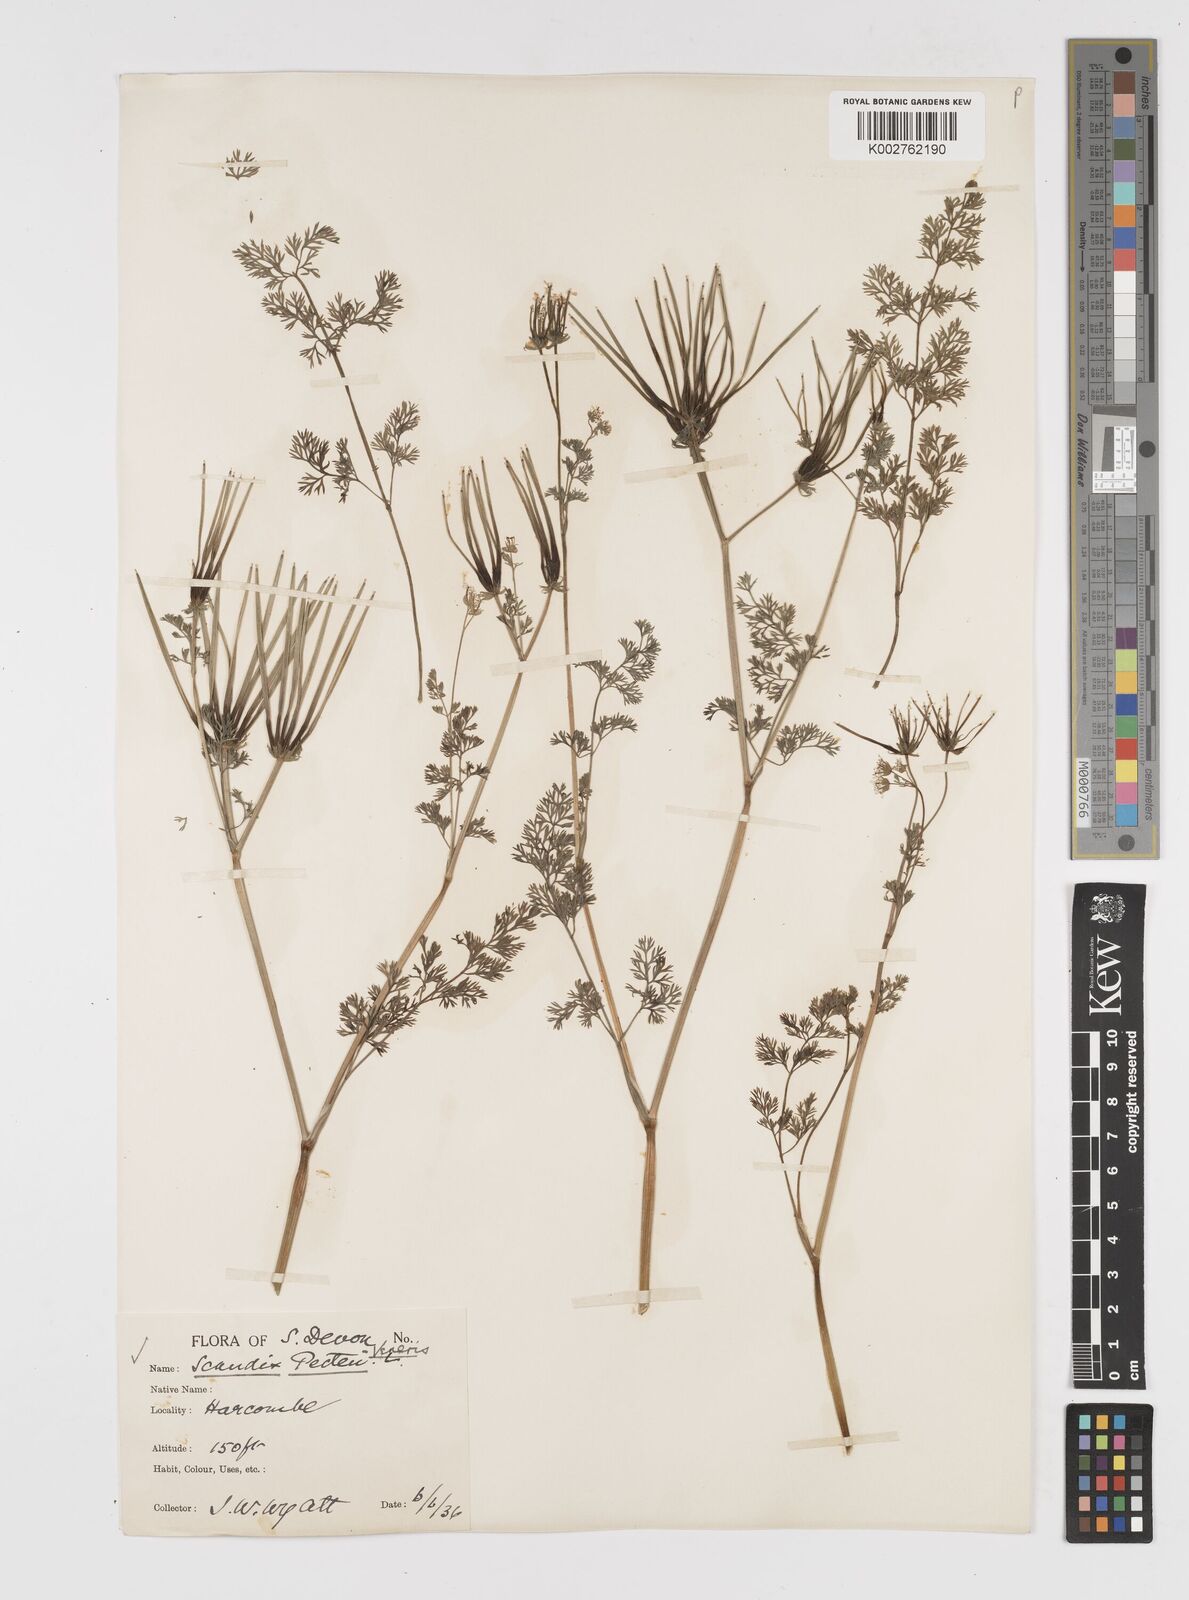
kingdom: Plantae
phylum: Tracheophyta
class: Magnoliopsida
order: Apiales
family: Apiaceae
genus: Scandix
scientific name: Scandix pecten-veneris
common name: Shepherd's-needle
